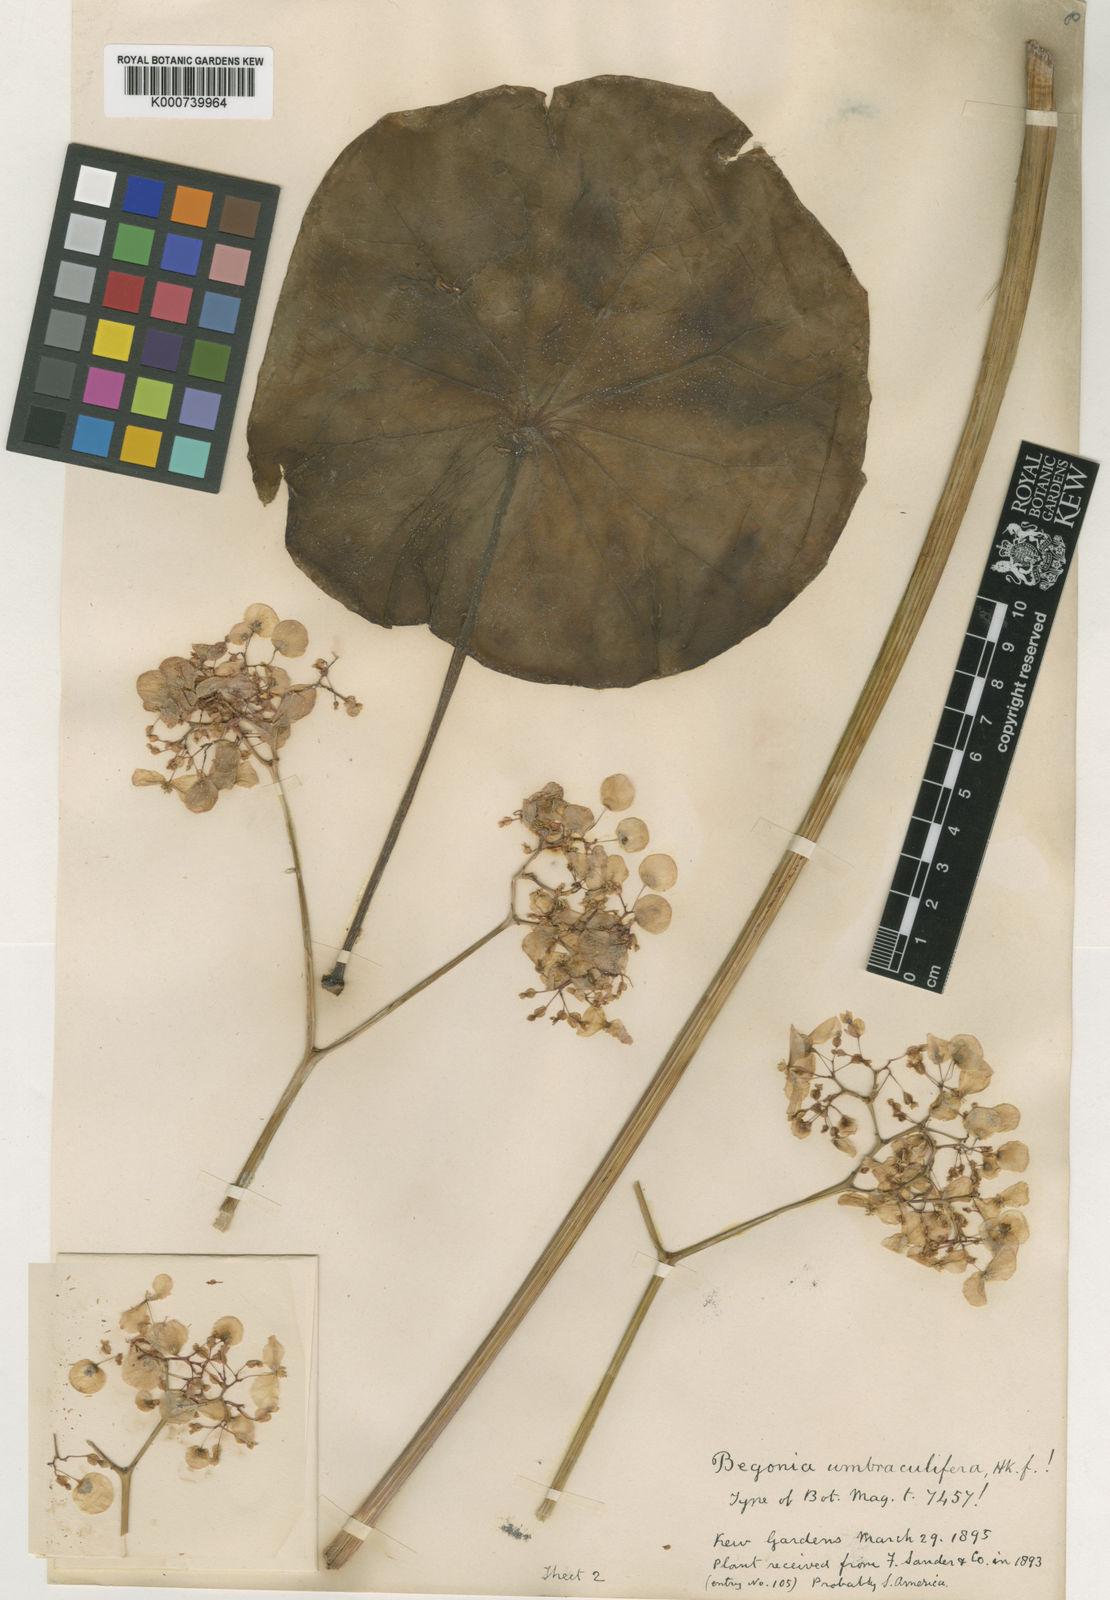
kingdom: Plantae
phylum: Tracheophyta
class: Magnoliopsida
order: Cucurbitales
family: Begoniaceae
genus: Begonia
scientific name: Begonia umbraculifera
